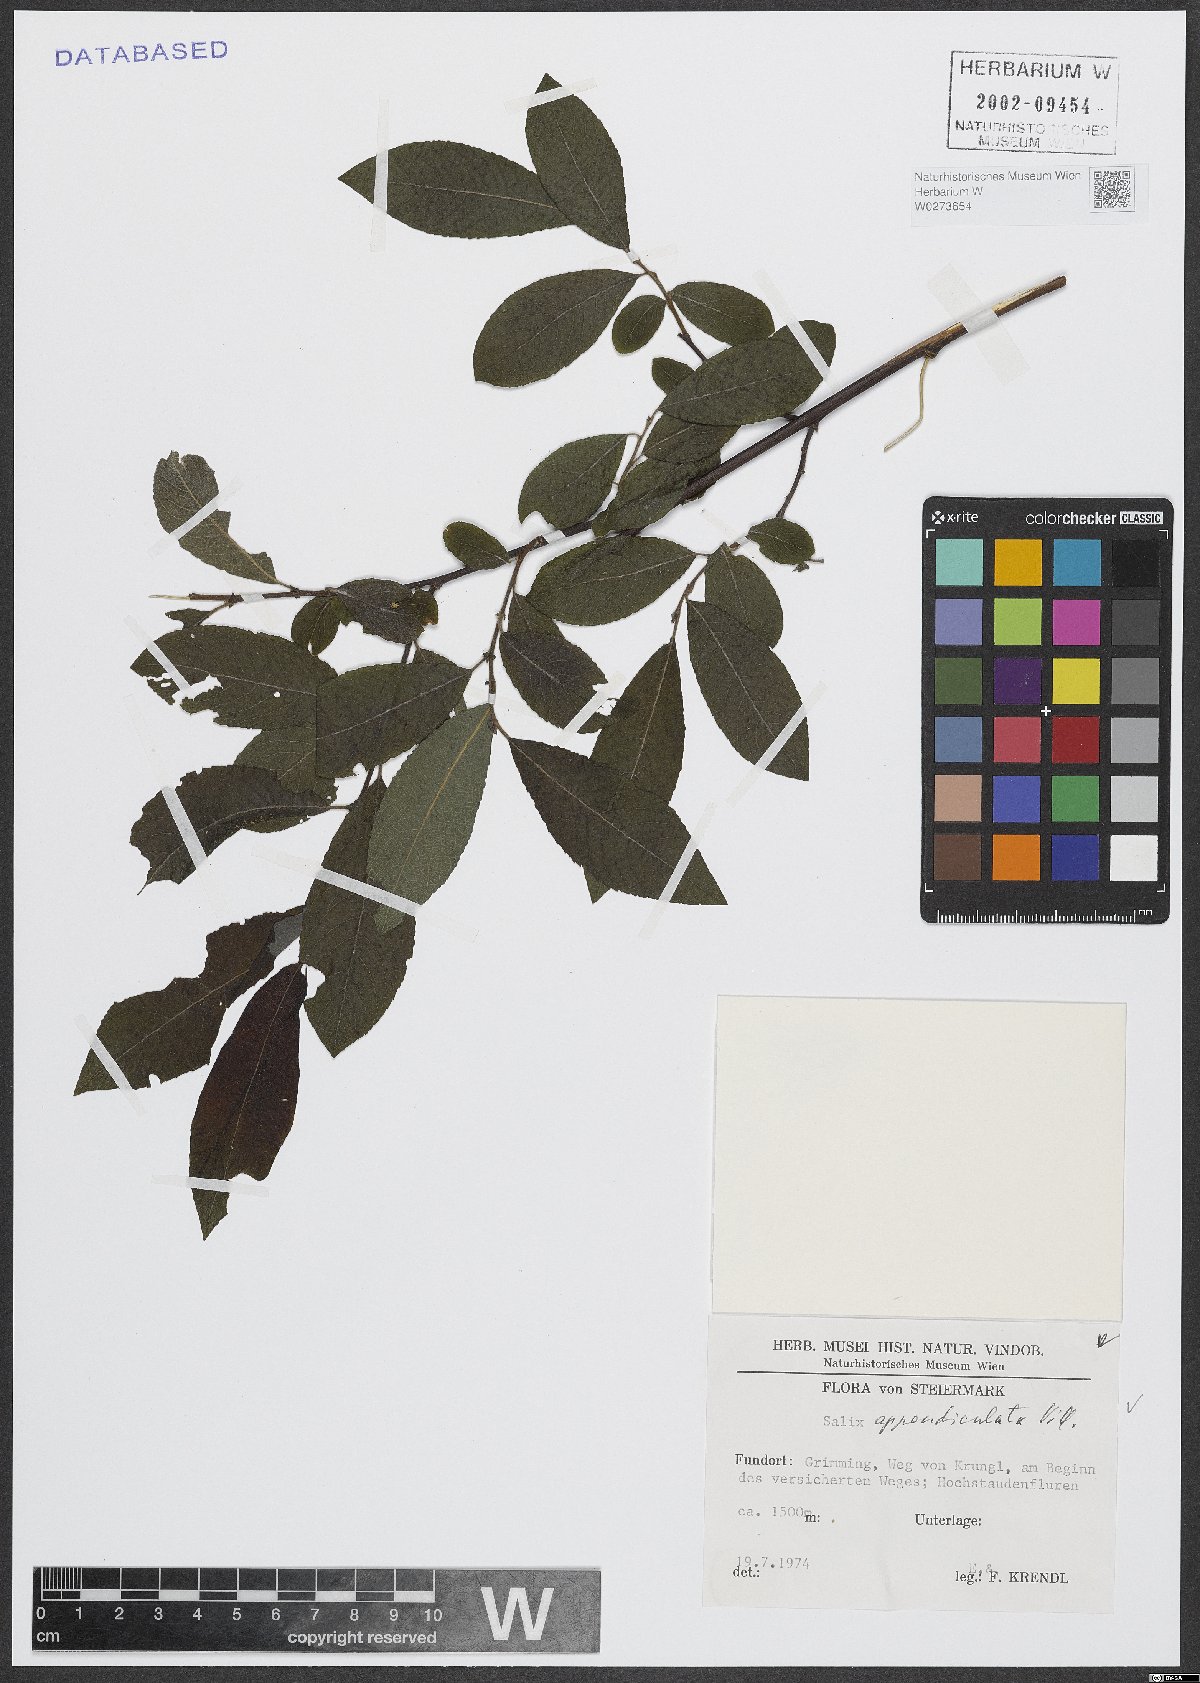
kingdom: Plantae
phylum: Tracheophyta
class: Magnoliopsida
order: Malpighiales
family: Salicaceae
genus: Salix
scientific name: Salix appendiculata
